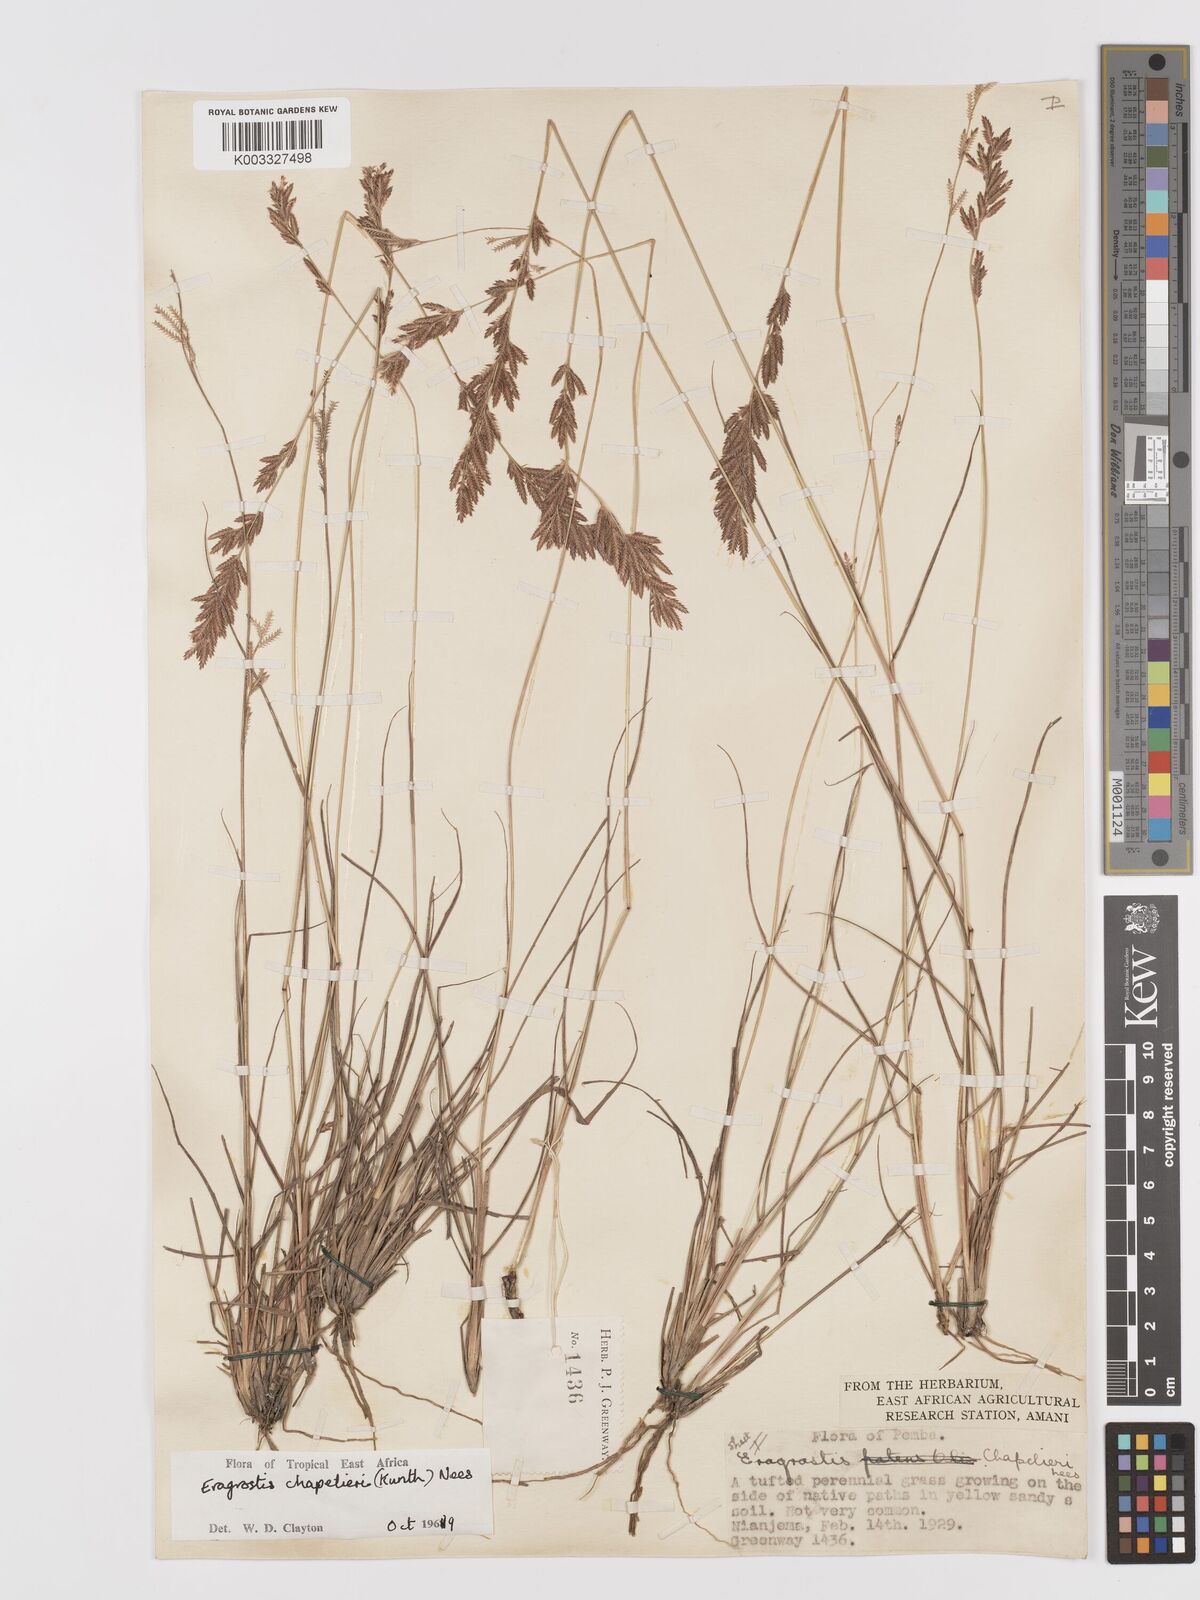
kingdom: Plantae
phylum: Tracheophyta
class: Liliopsida
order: Poales
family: Poaceae
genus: Eragrostis
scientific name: Eragrostis chapelieri
